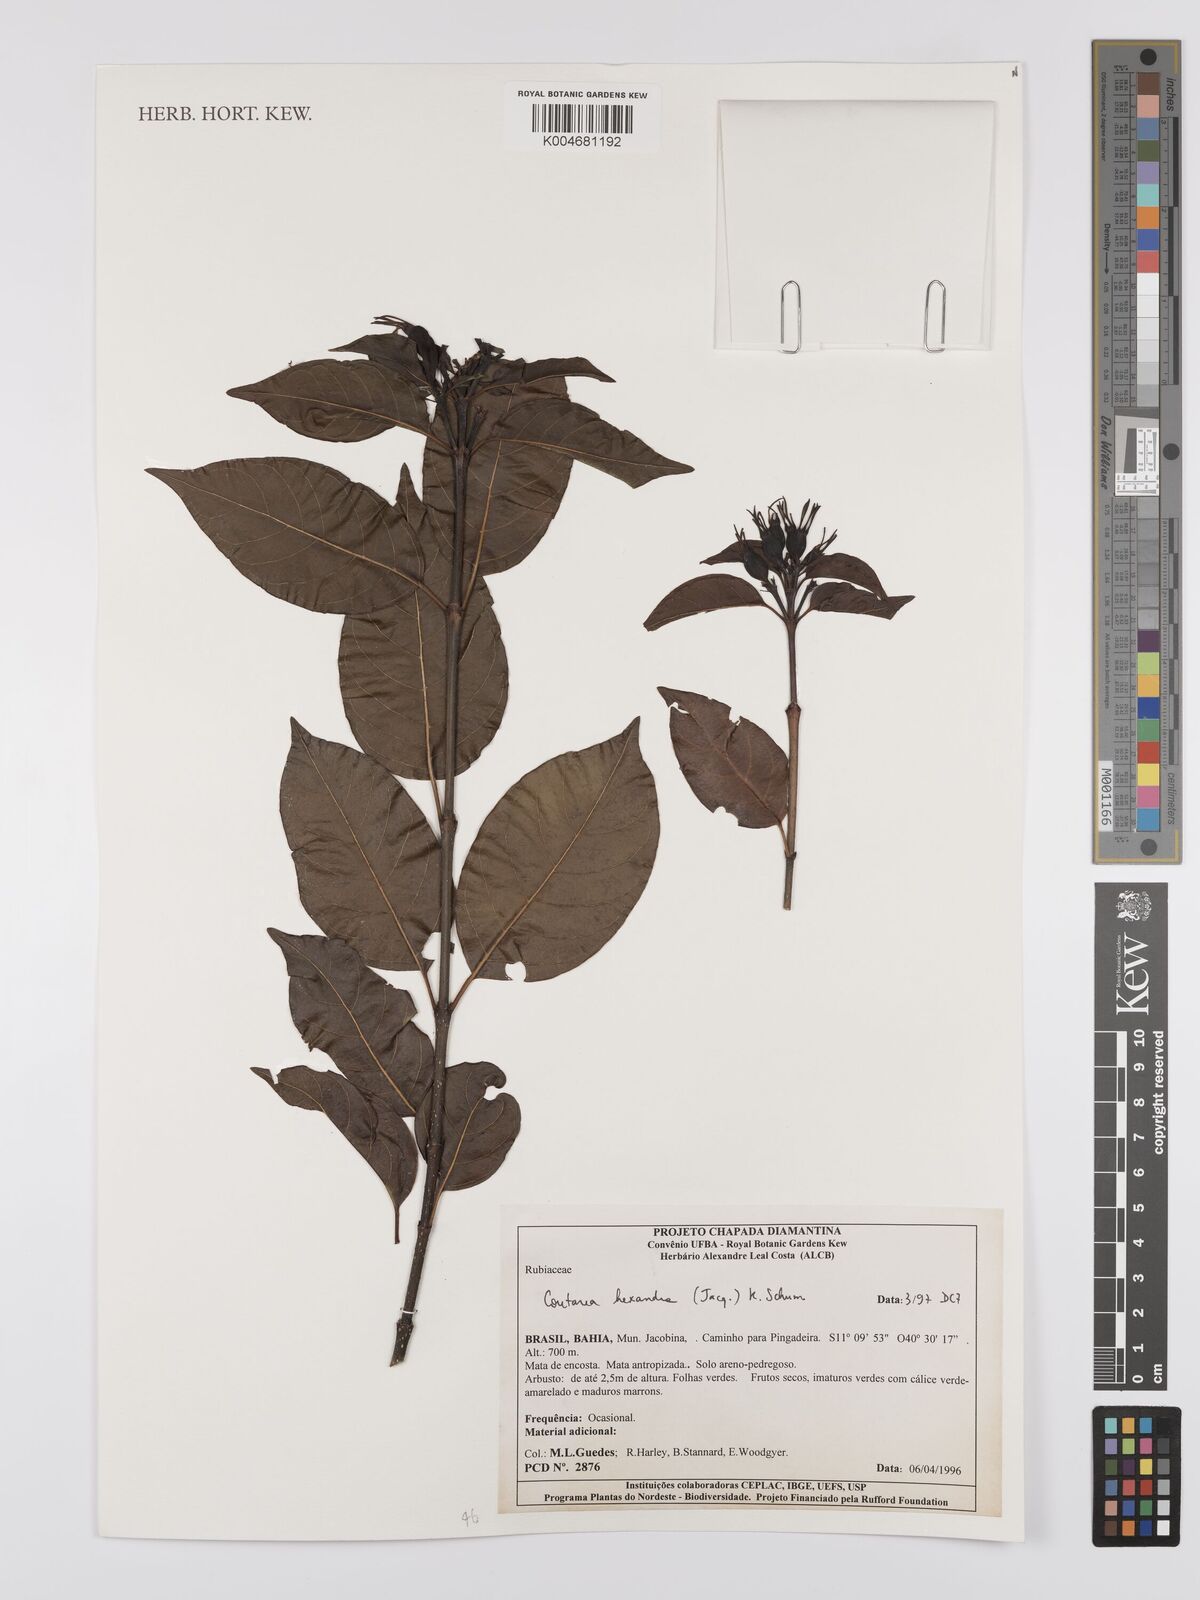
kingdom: Plantae
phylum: Tracheophyta
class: Magnoliopsida
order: Gentianales
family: Rubiaceae
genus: Coutarea
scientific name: Coutarea hexandra
